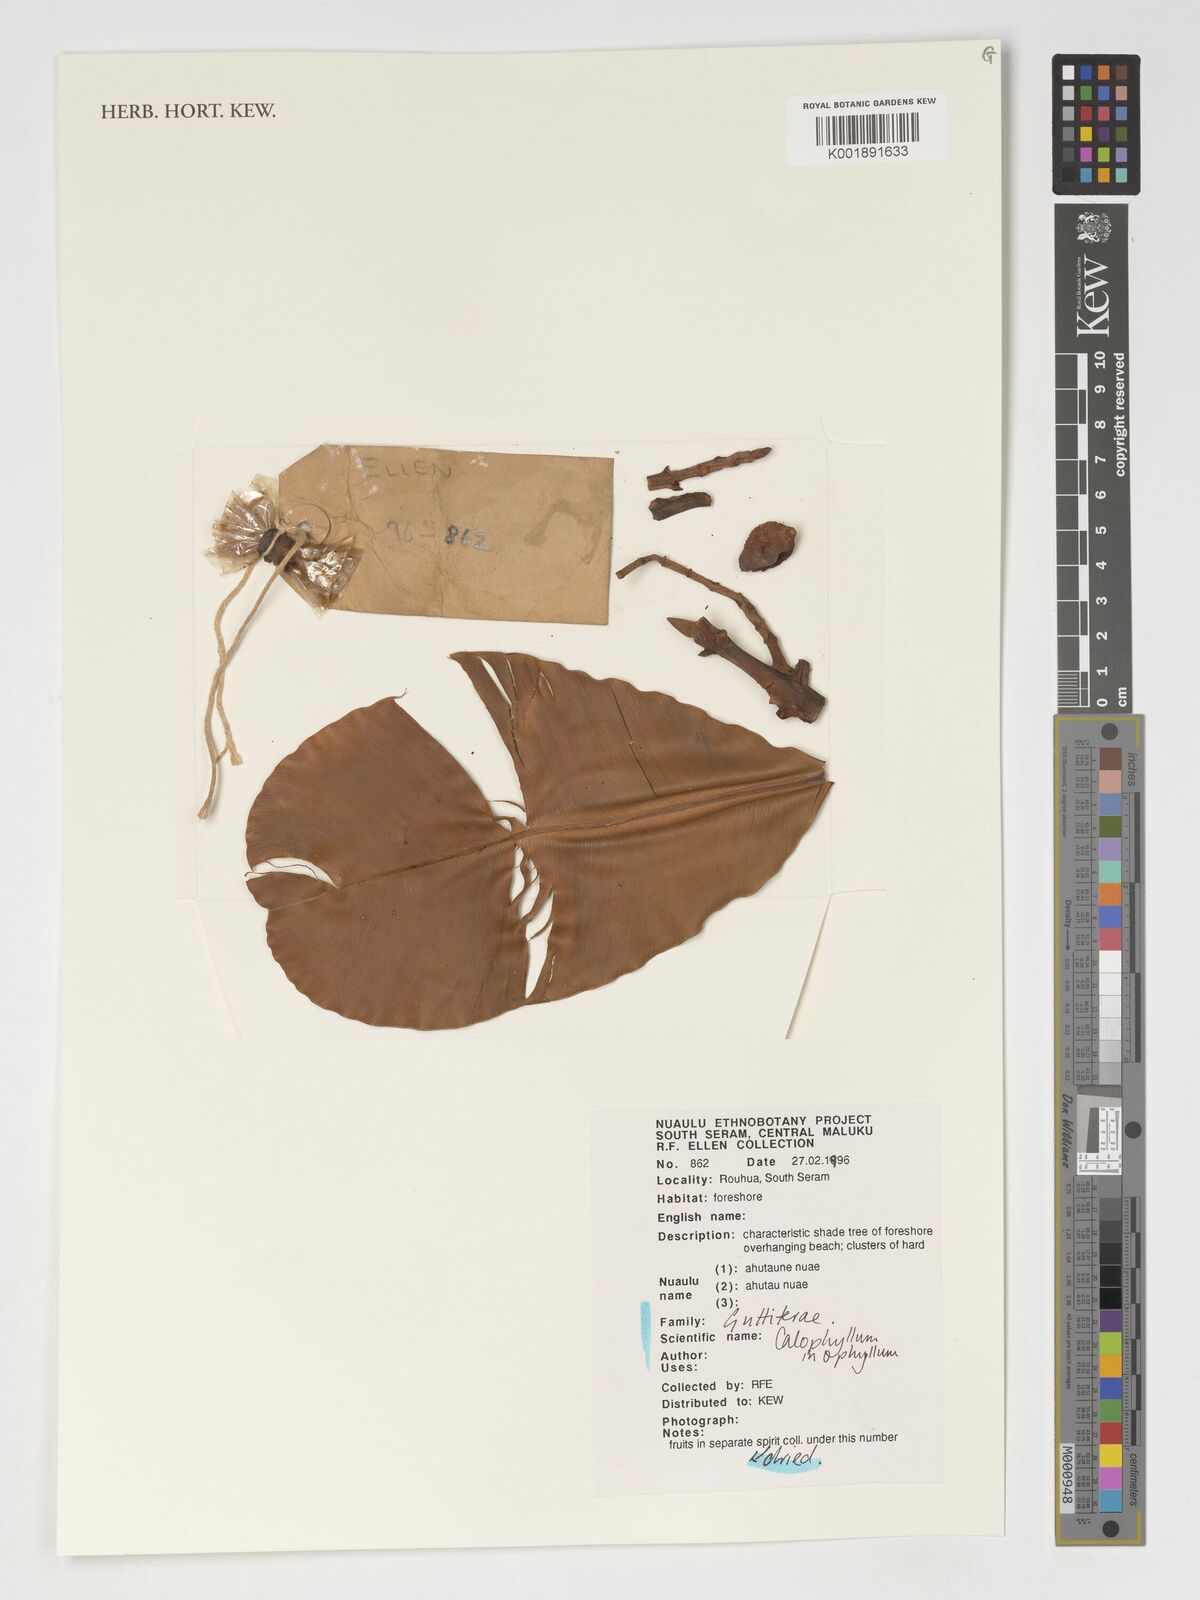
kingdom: Plantae
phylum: Tracheophyta
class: Magnoliopsida
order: Malpighiales
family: Calophyllaceae
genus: Calophyllum
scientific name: Calophyllum inophyllum
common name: Alexandrian laurel
